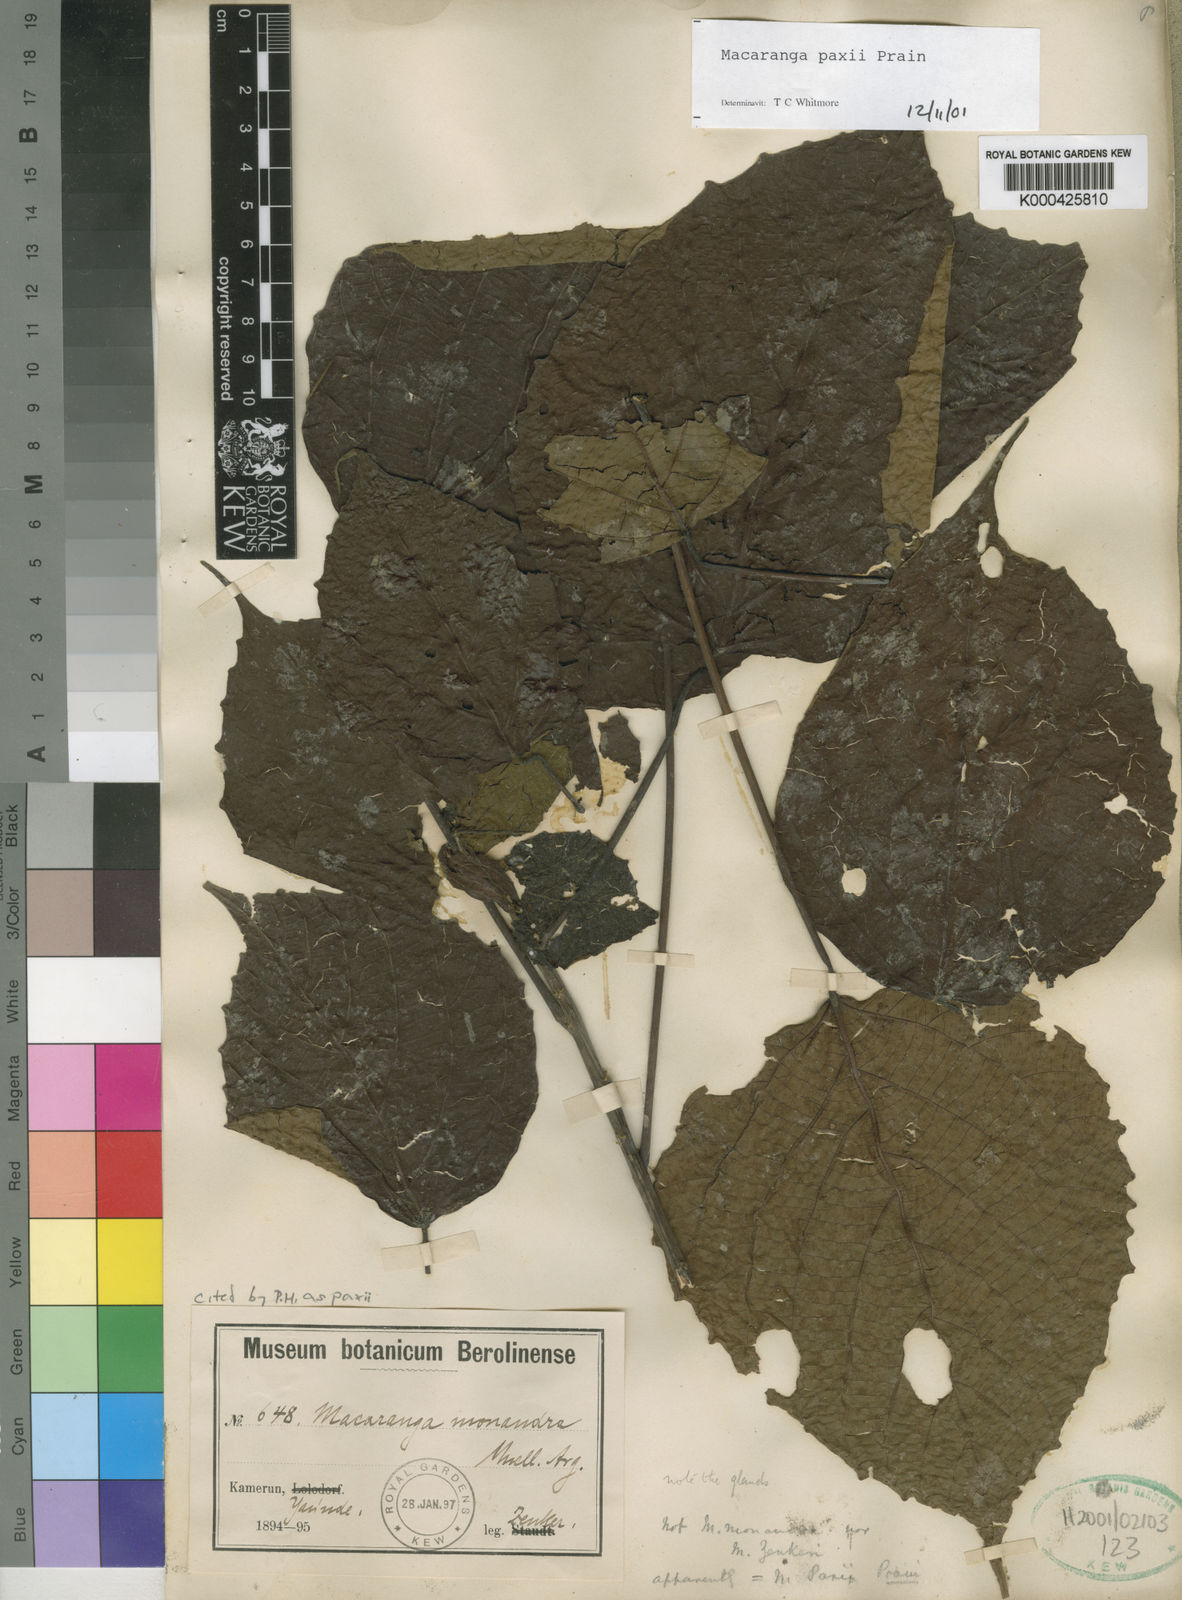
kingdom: Plantae
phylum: Tracheophyta
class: Magnoliopsida
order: Malpighiales
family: Euphorbiaceae
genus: Macaranga
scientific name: Macaranga paxii
